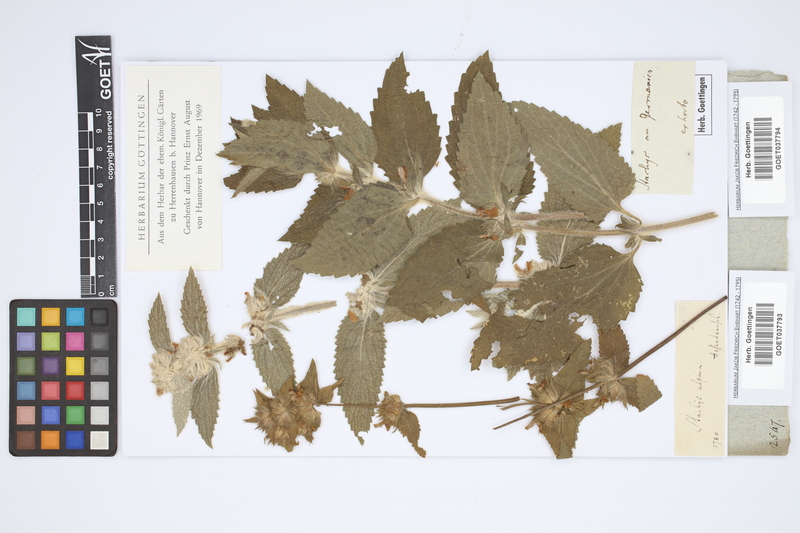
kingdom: Plantae
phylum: Tracheophyta
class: Magnoliopsida
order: Lamiales
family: Lamiaceae
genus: Stachys
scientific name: Stachys alpina
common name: Limestone woundwort
